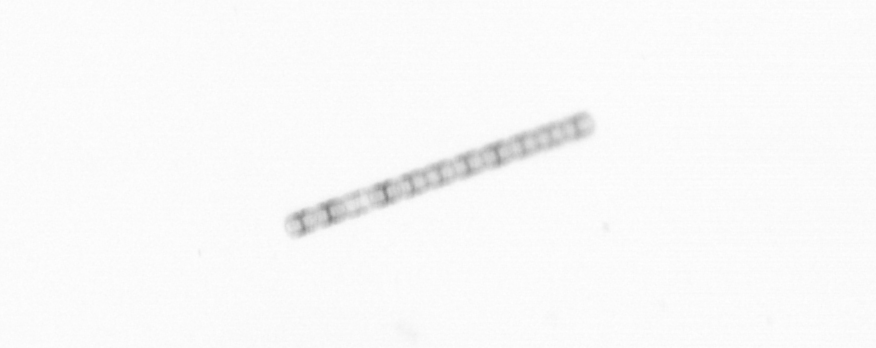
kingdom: Chromista
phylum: Ochrophyta
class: Bacillariophyceae
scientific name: Bacillariophyceae
